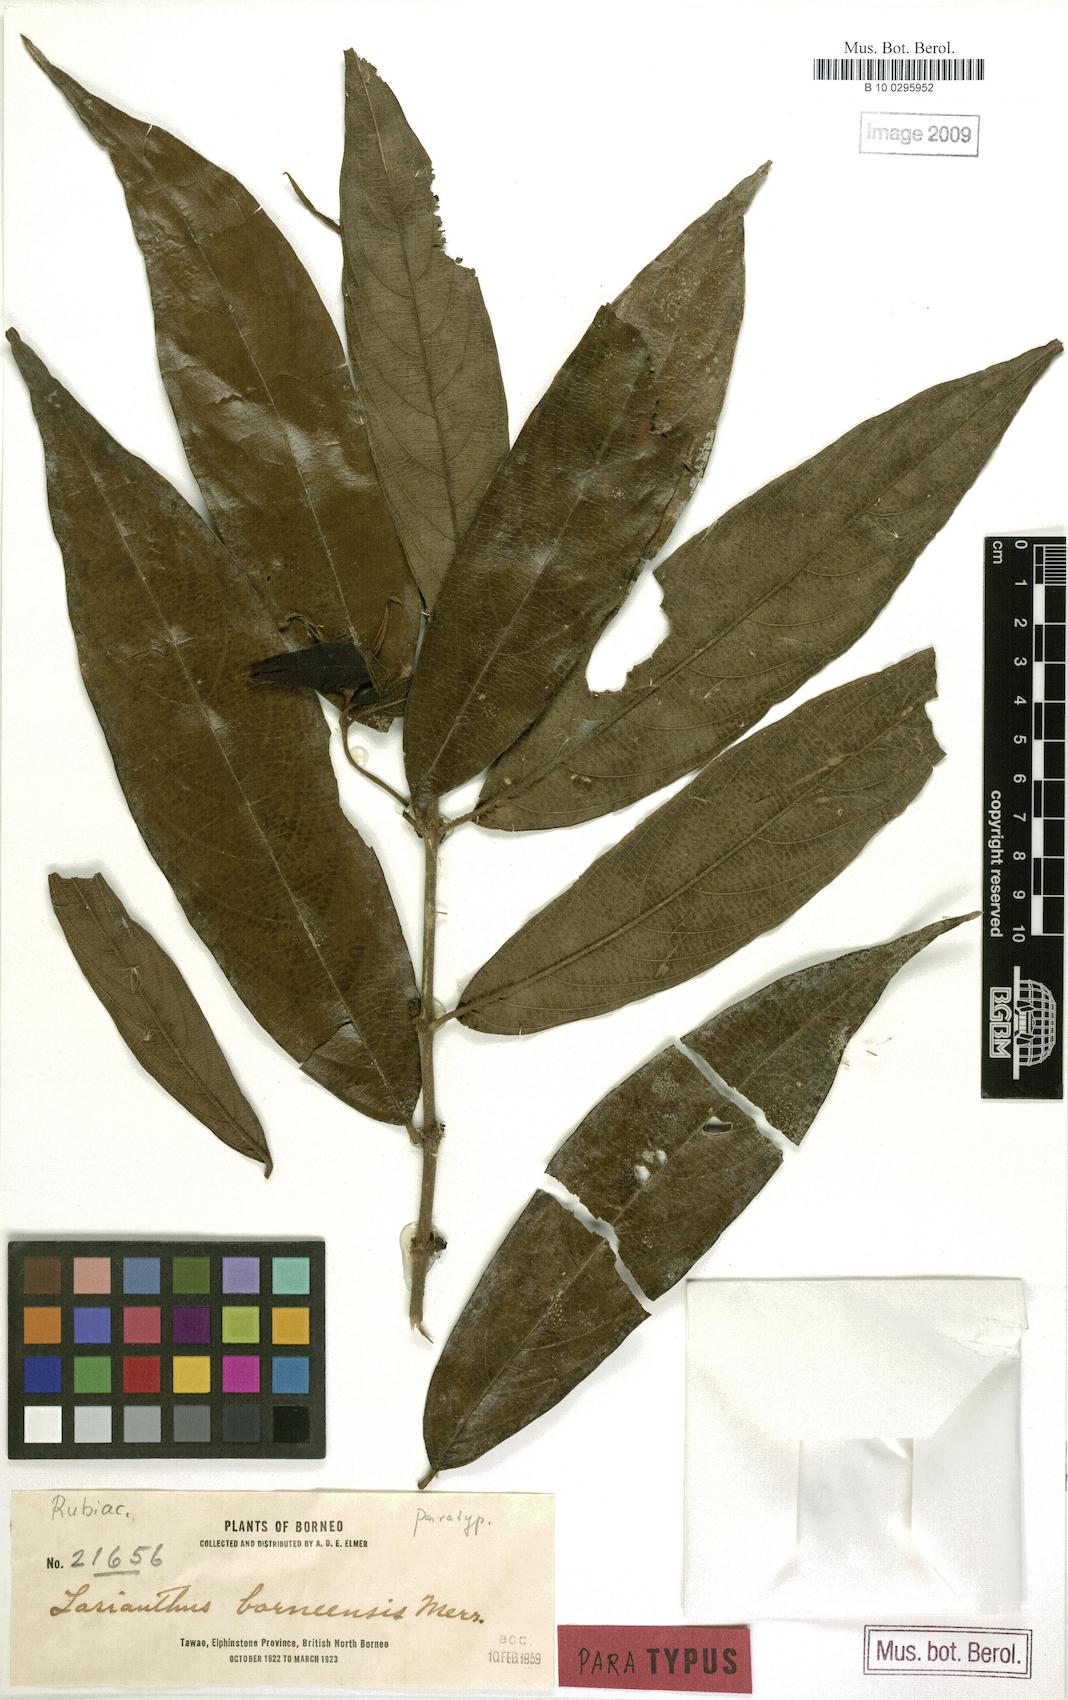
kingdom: Plantae
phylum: Tracheophyta
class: Magnoliopsida
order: Gentianales
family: Rubiaceae
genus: Lasianthus
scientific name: Lasianthus borneensis
